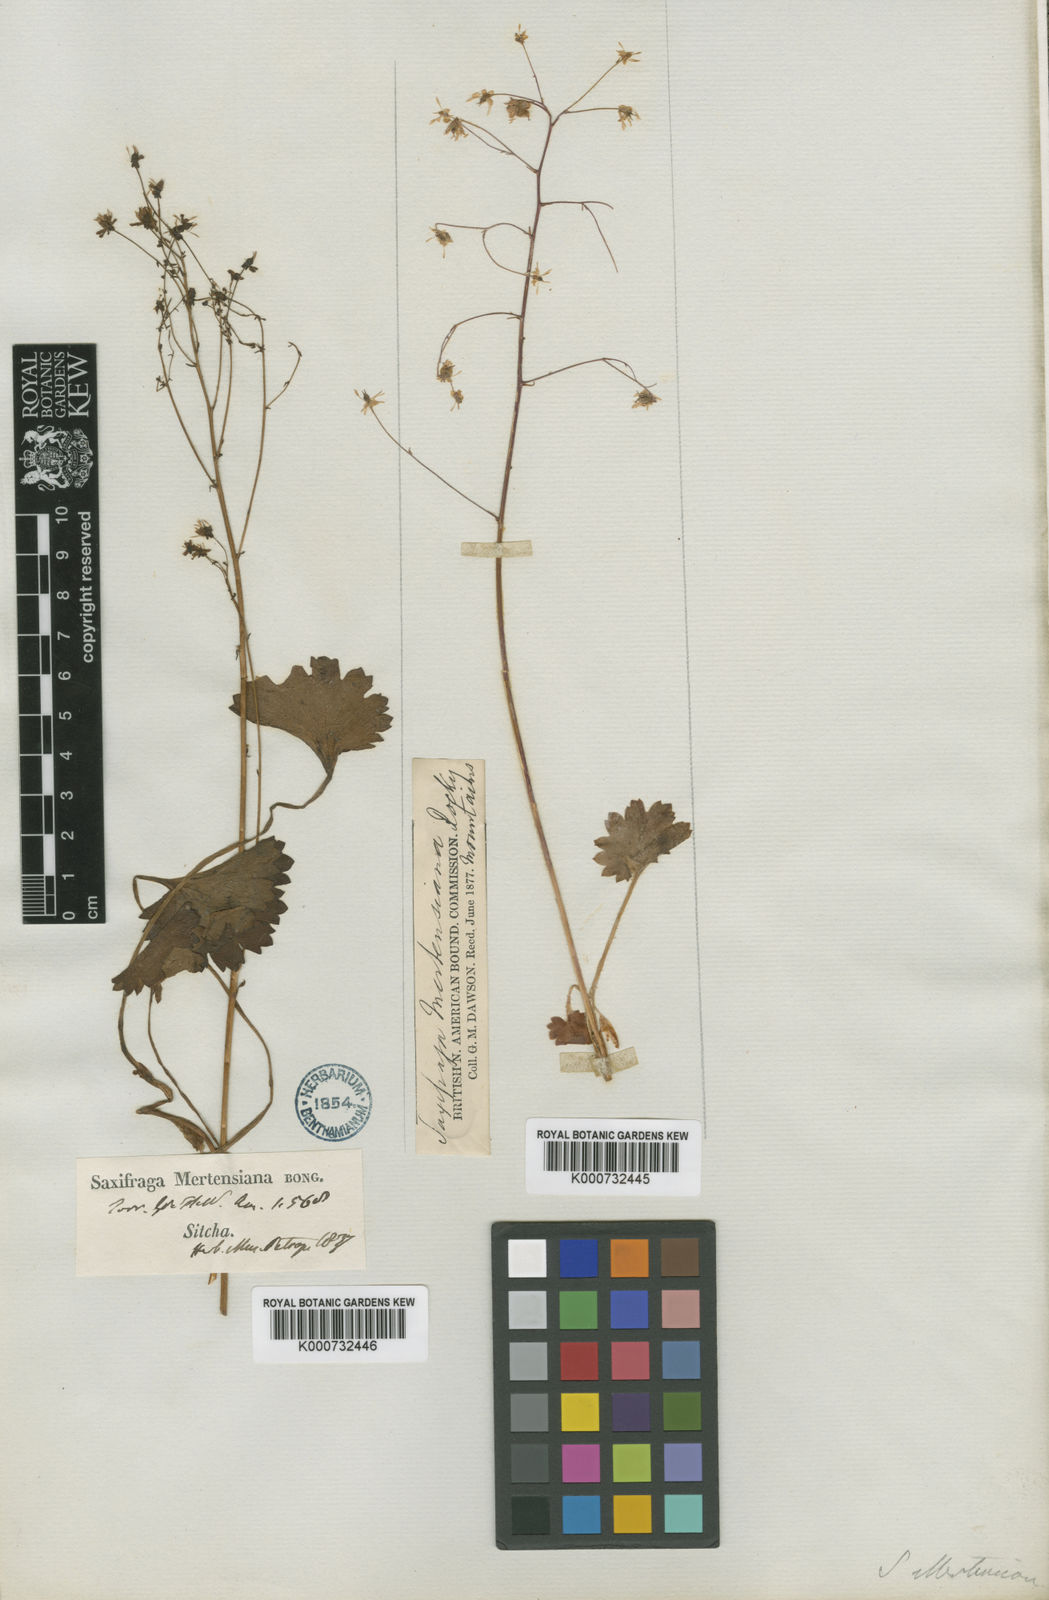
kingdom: Plantae
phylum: Tracheophyta
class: Magnoliopsida
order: Saxifragales
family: Saxifragaceae
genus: Micranthes
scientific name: Micranthes mertensiana
